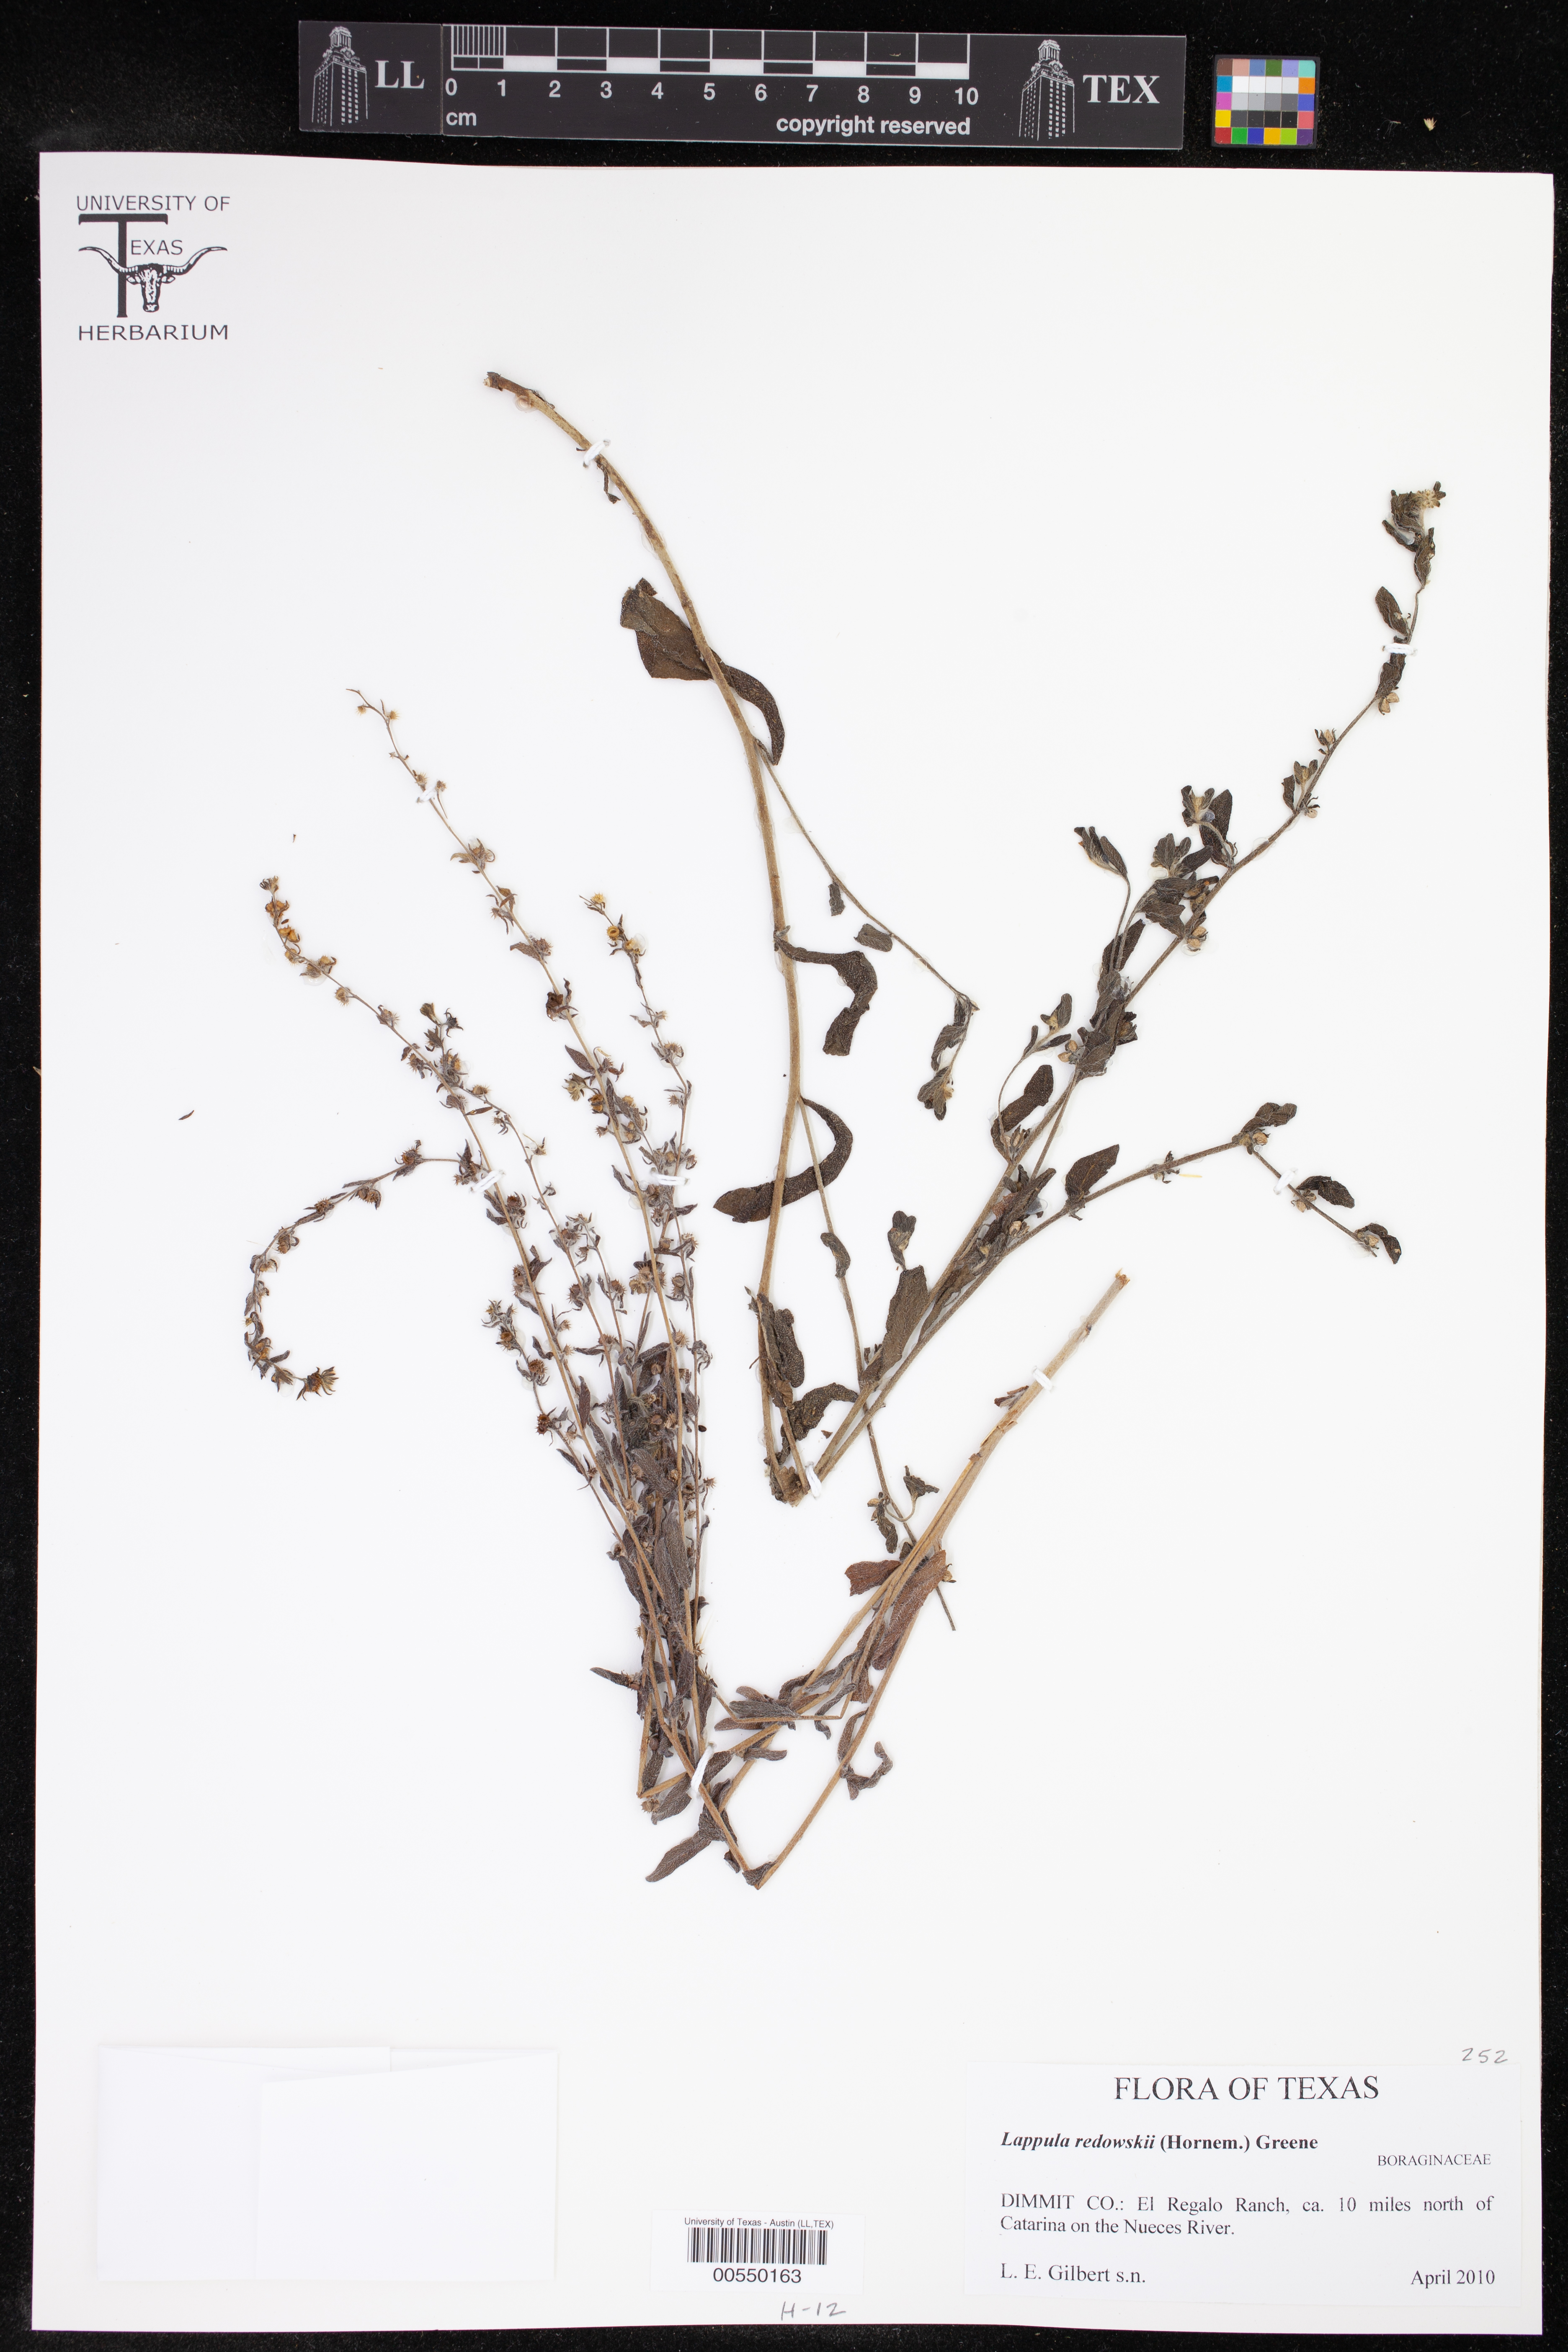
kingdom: Plantae
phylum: Tracheophyta
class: Magnoliopsida
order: Boraginales
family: Boraginaceae
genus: Lappula
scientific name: Lappula redowskii
